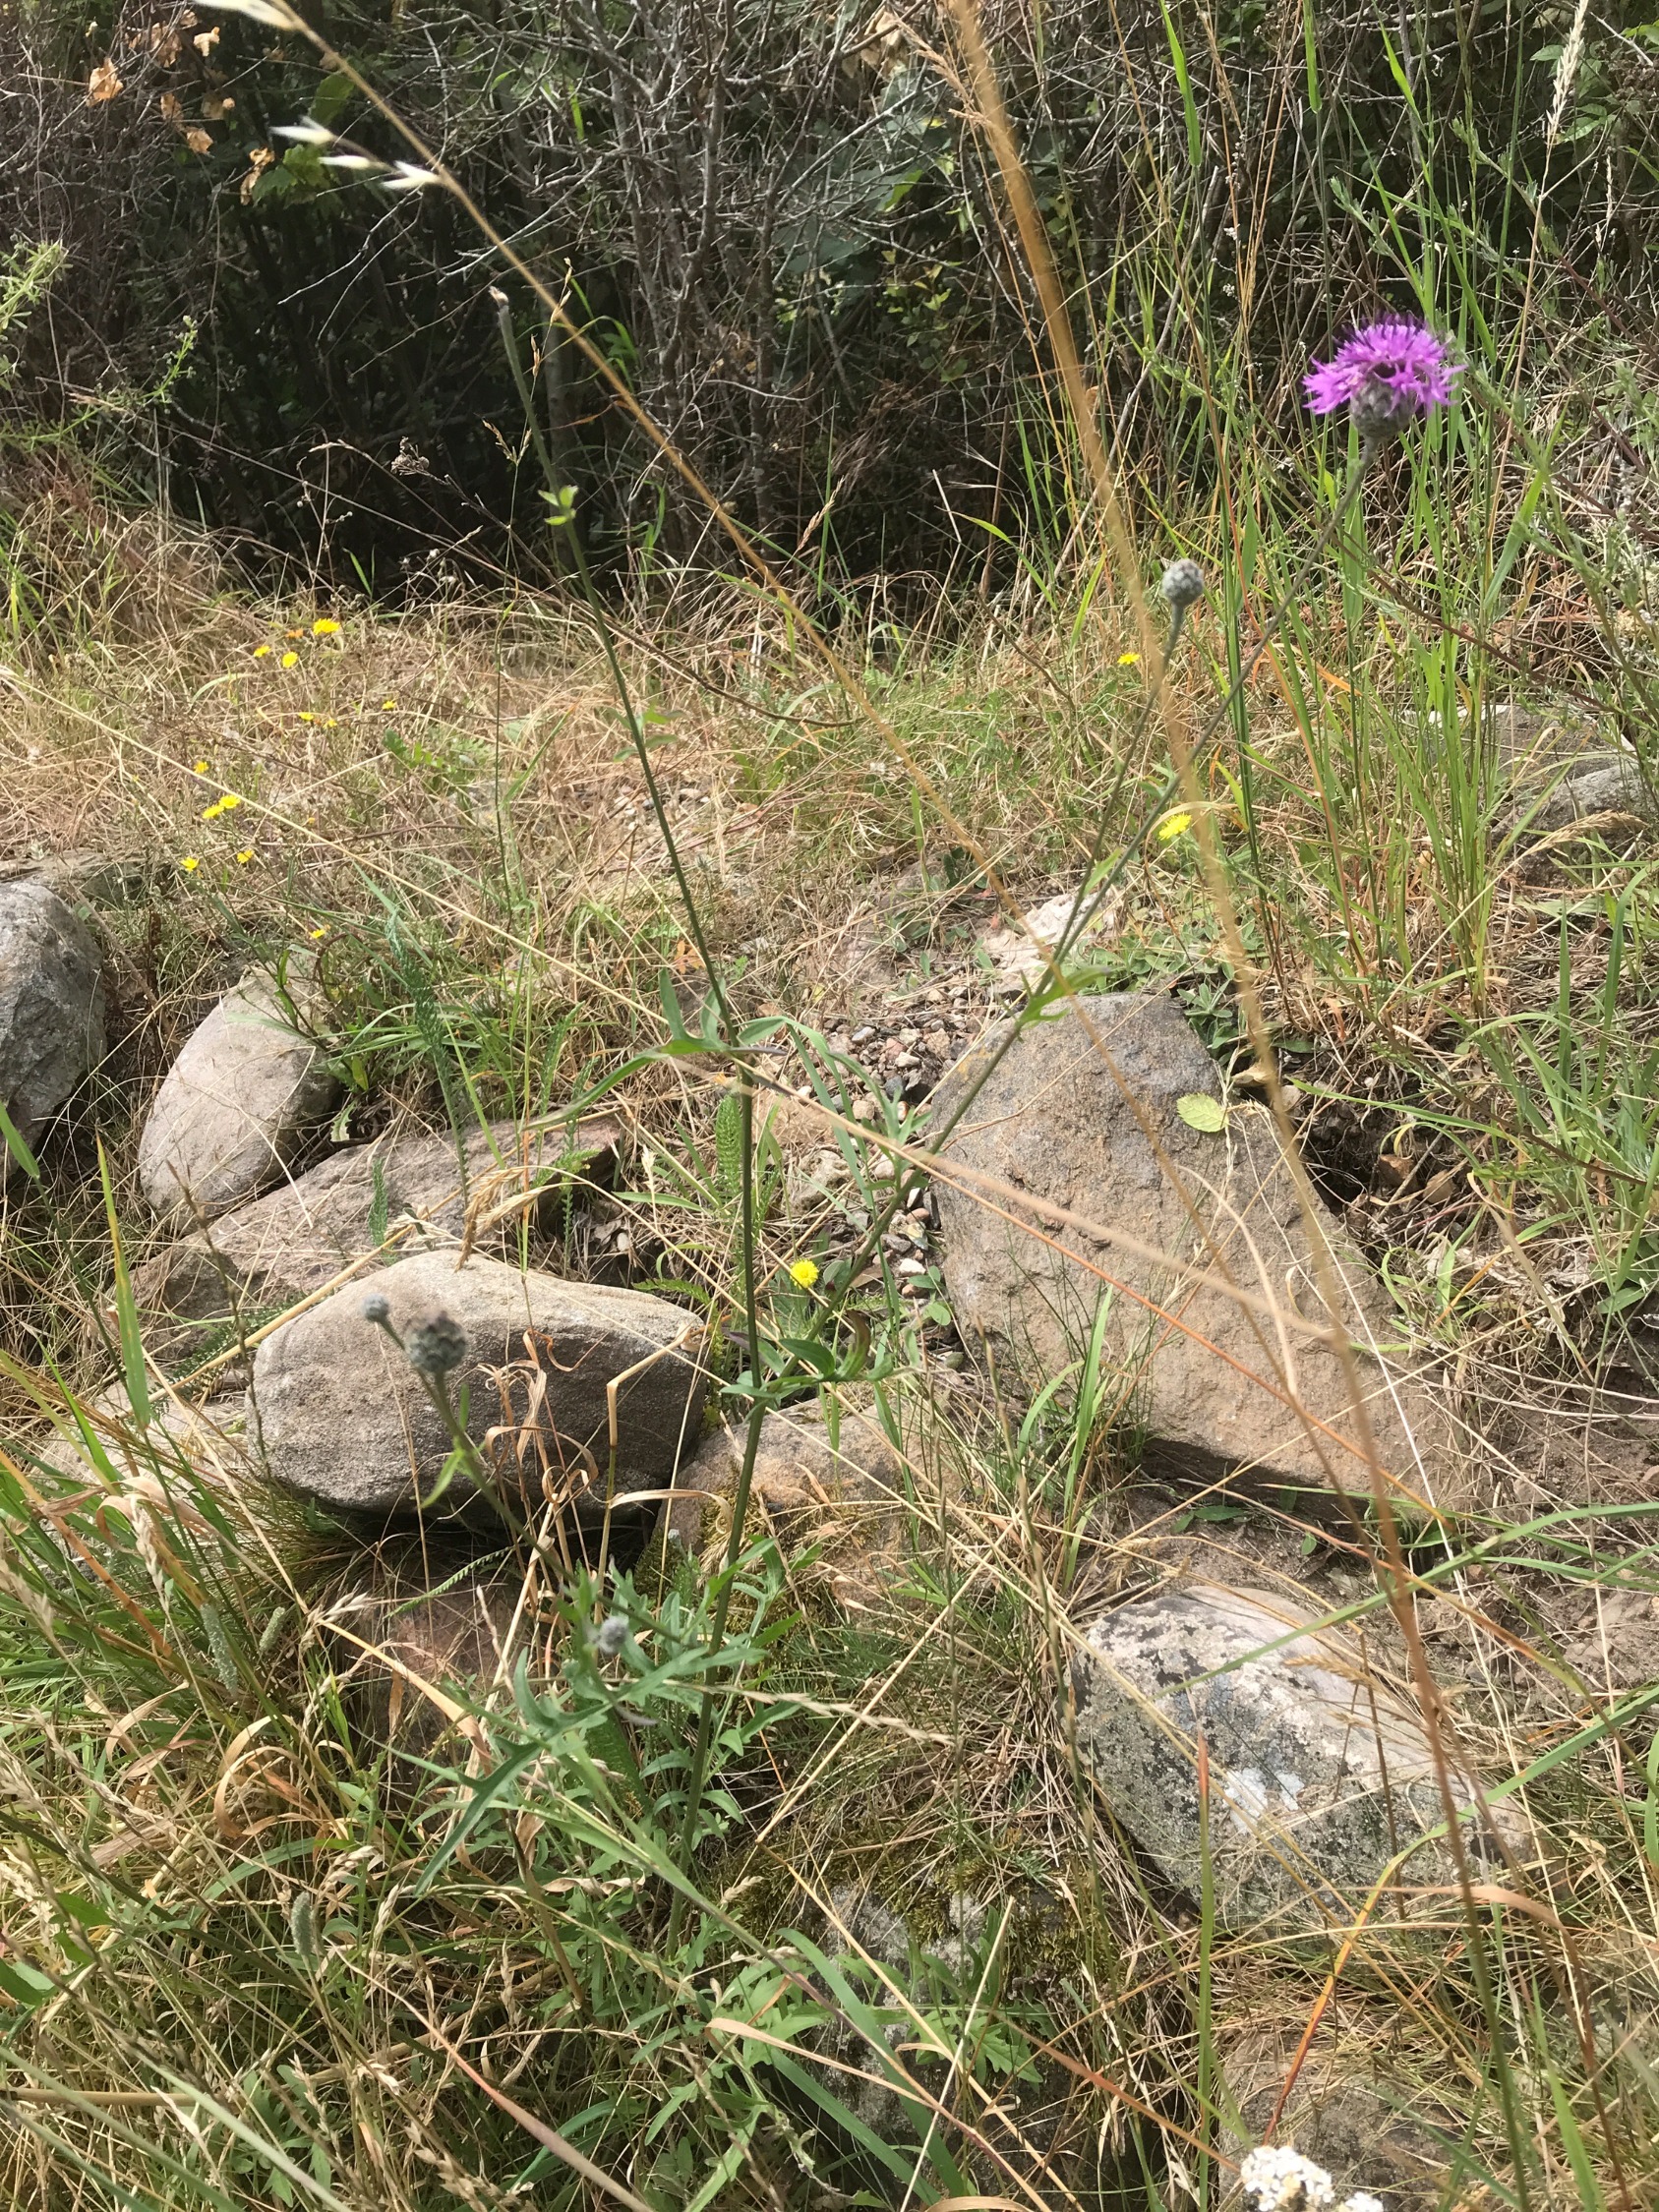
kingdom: Plantae
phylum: Tracheophyta
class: Magnoliopsida
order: Asterales
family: Asteraceae
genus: Centaurea
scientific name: Centaurea scabiosa
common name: Stor knopurt
